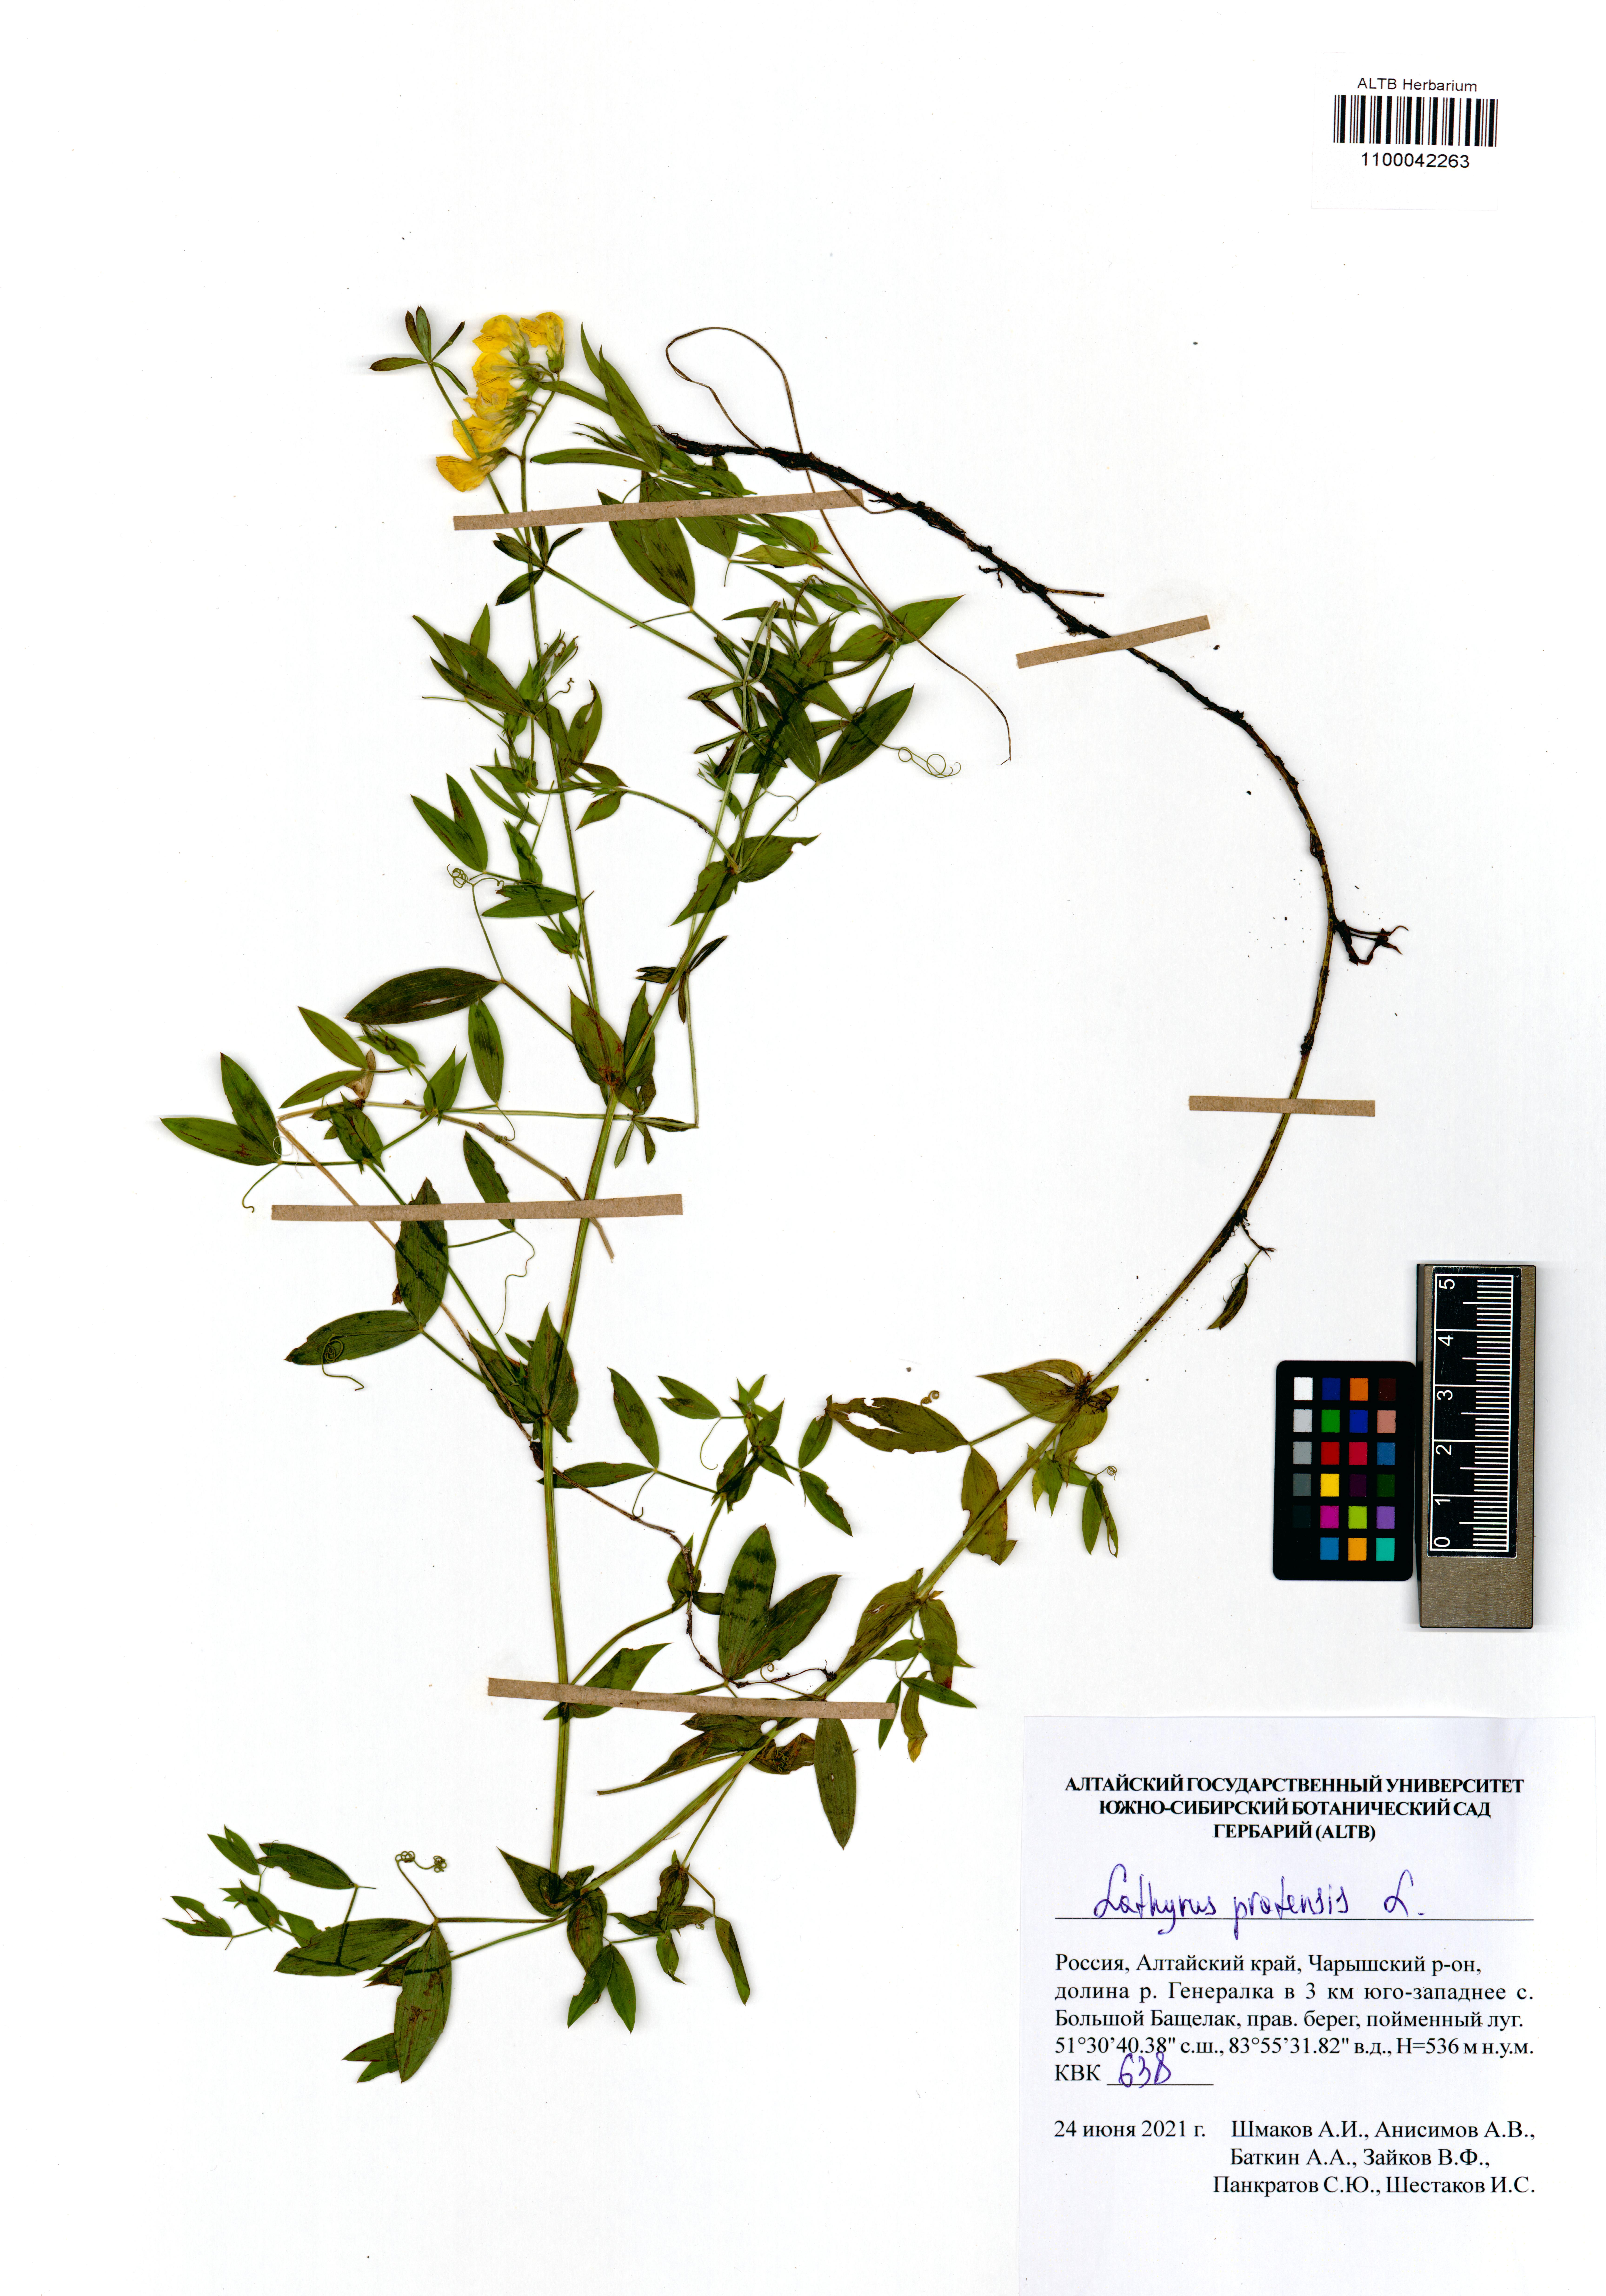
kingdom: Plantae
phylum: Tracheophyta
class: Magnoliopsida
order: Fabales
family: Fabaceae
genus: Lathyrus
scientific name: Lathyrus pratensis
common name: Meadow vetchling
